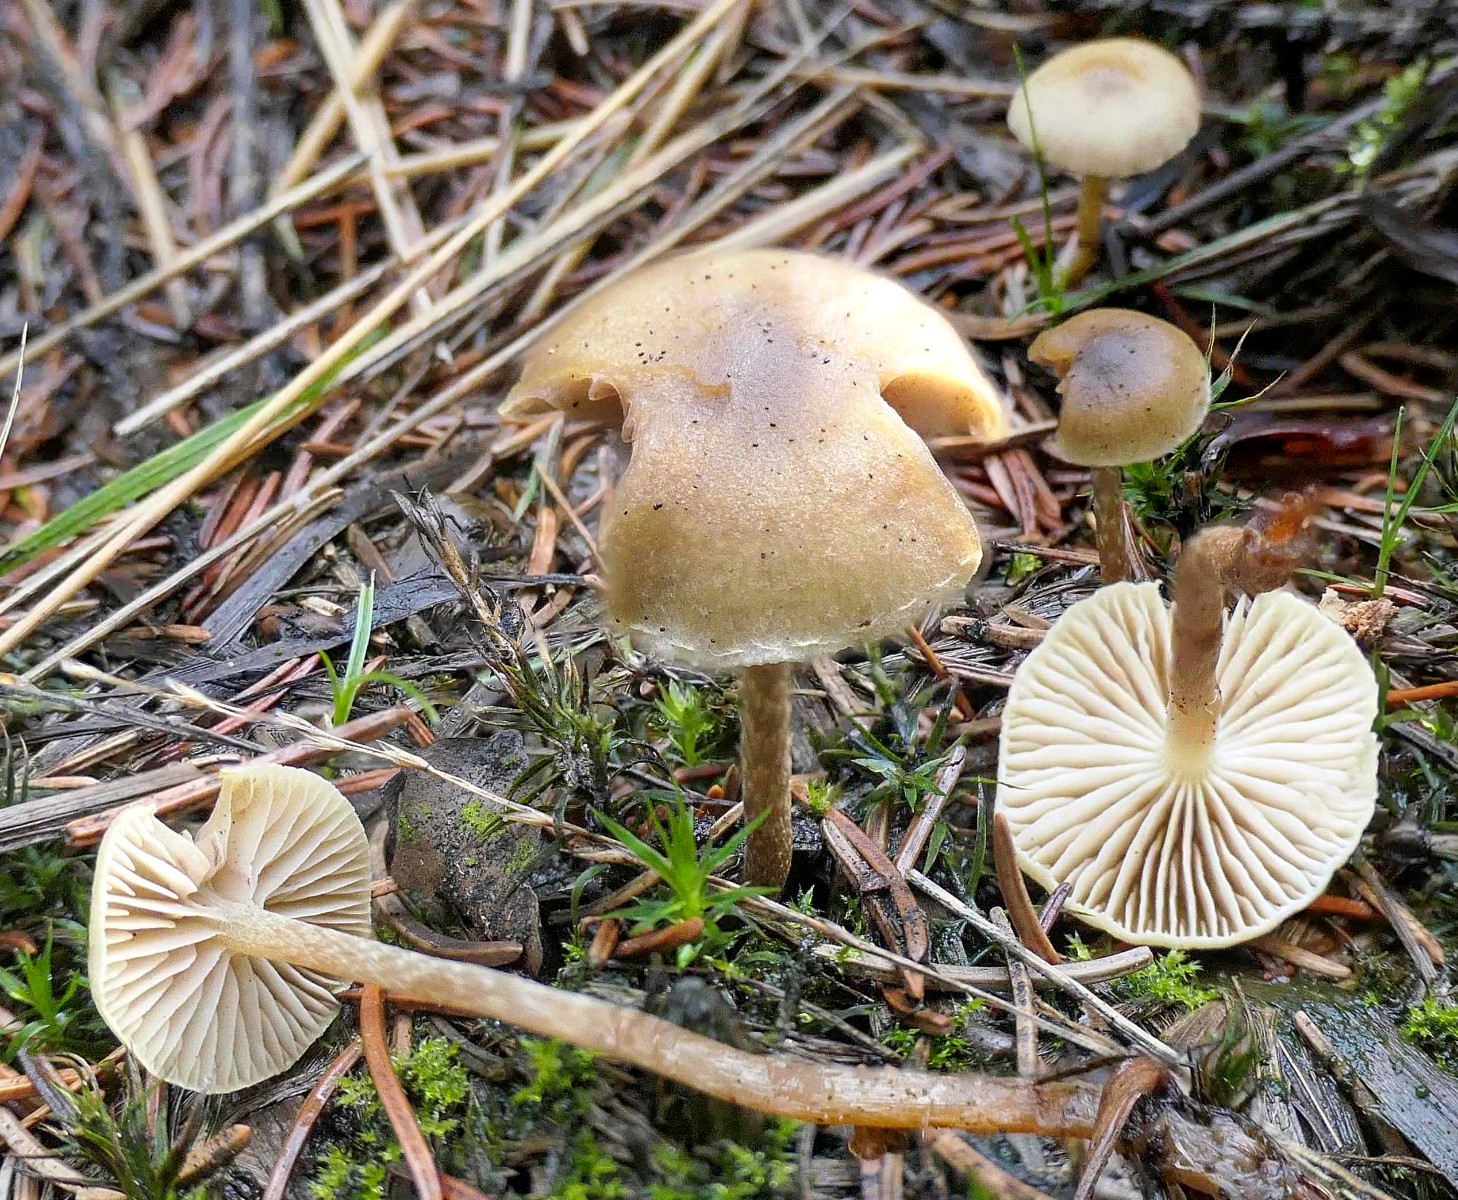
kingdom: Fungi
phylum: Basidiomycota
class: Agaricomycetes
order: Agaricales
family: Strophariaceae
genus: Hypholoma
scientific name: Hypholoma elongatum
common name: slank svovlhat
